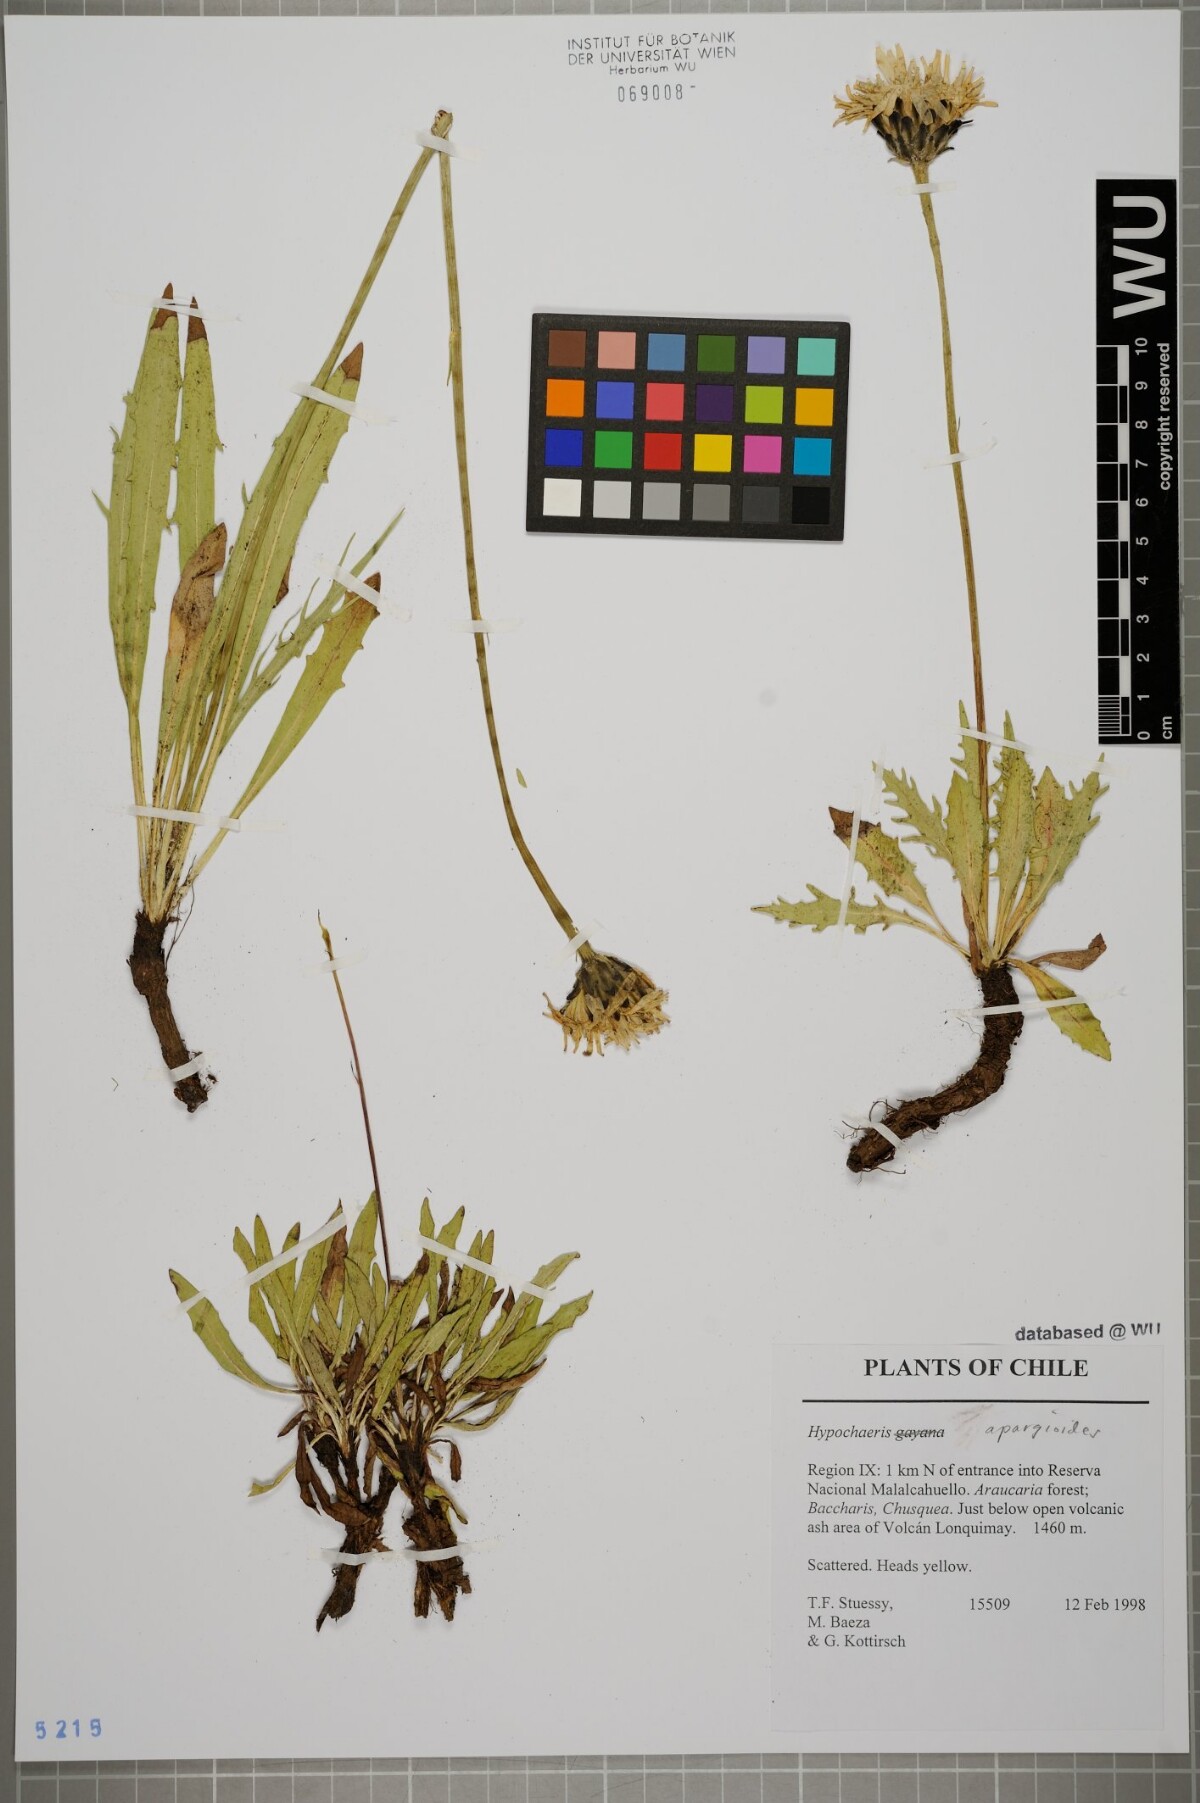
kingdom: Plantae
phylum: Tracheophyta
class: Magnoliopsida
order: Asterales
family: Asteraceae
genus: Hypochaeris
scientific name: Hypochaeris apargioides
